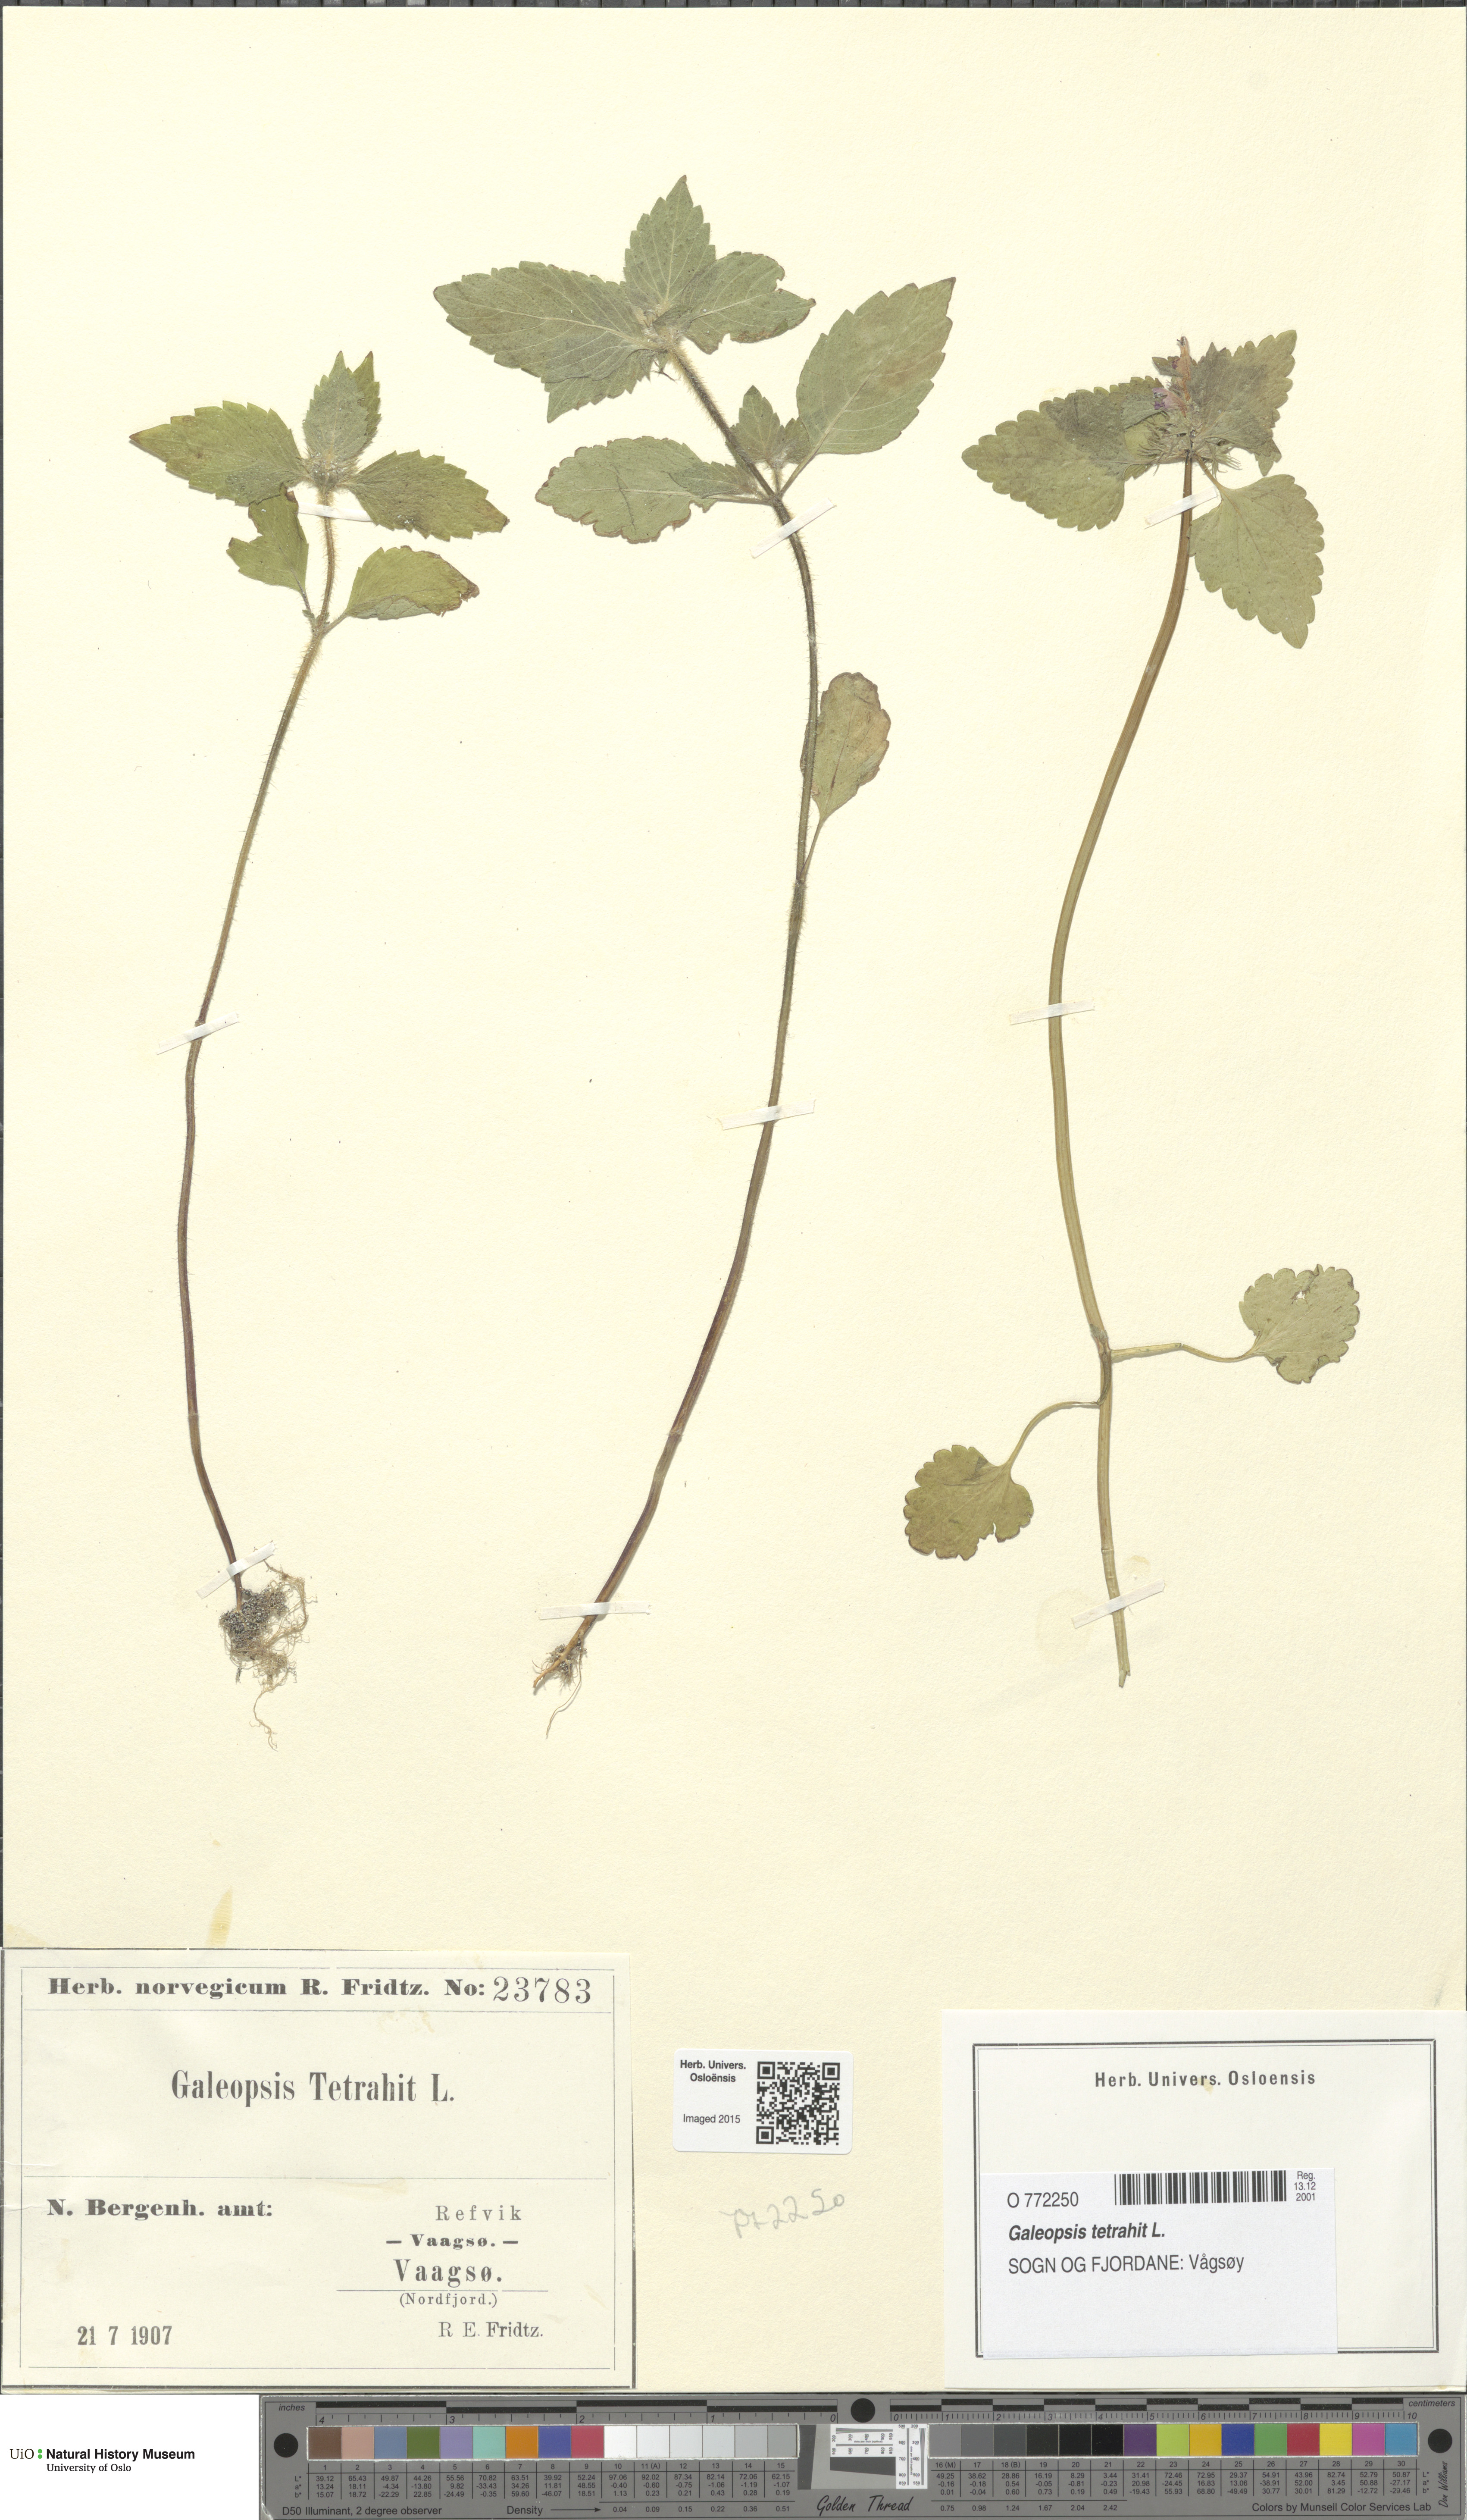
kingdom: Plantae
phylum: Tracheophyta
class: Magnoliopsida
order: Lamiales
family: Lamiaceae
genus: Galeopsis
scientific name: Galeopsis tetrahit
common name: Common hemp-nettle
